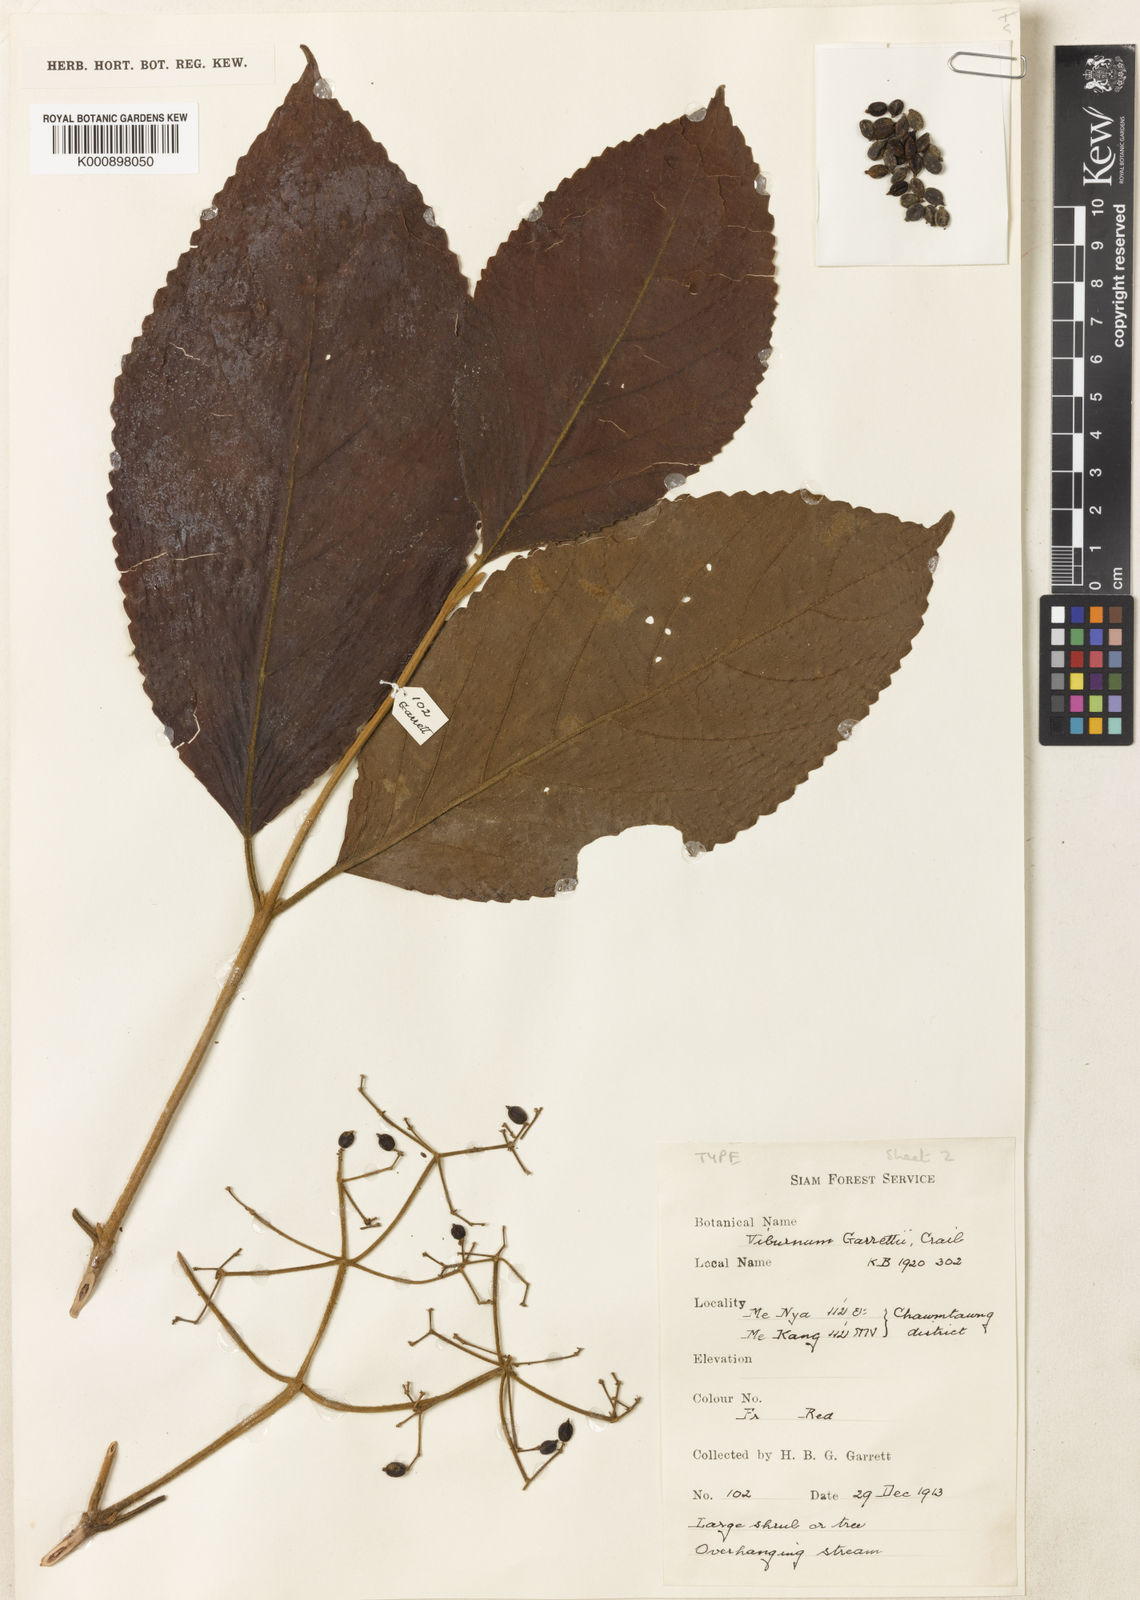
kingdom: Plantae
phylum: Tracheophyta
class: Magnoliopsida
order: Dipsacales
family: Viburnaceae
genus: Viburnum
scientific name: Viburnum garrettii
